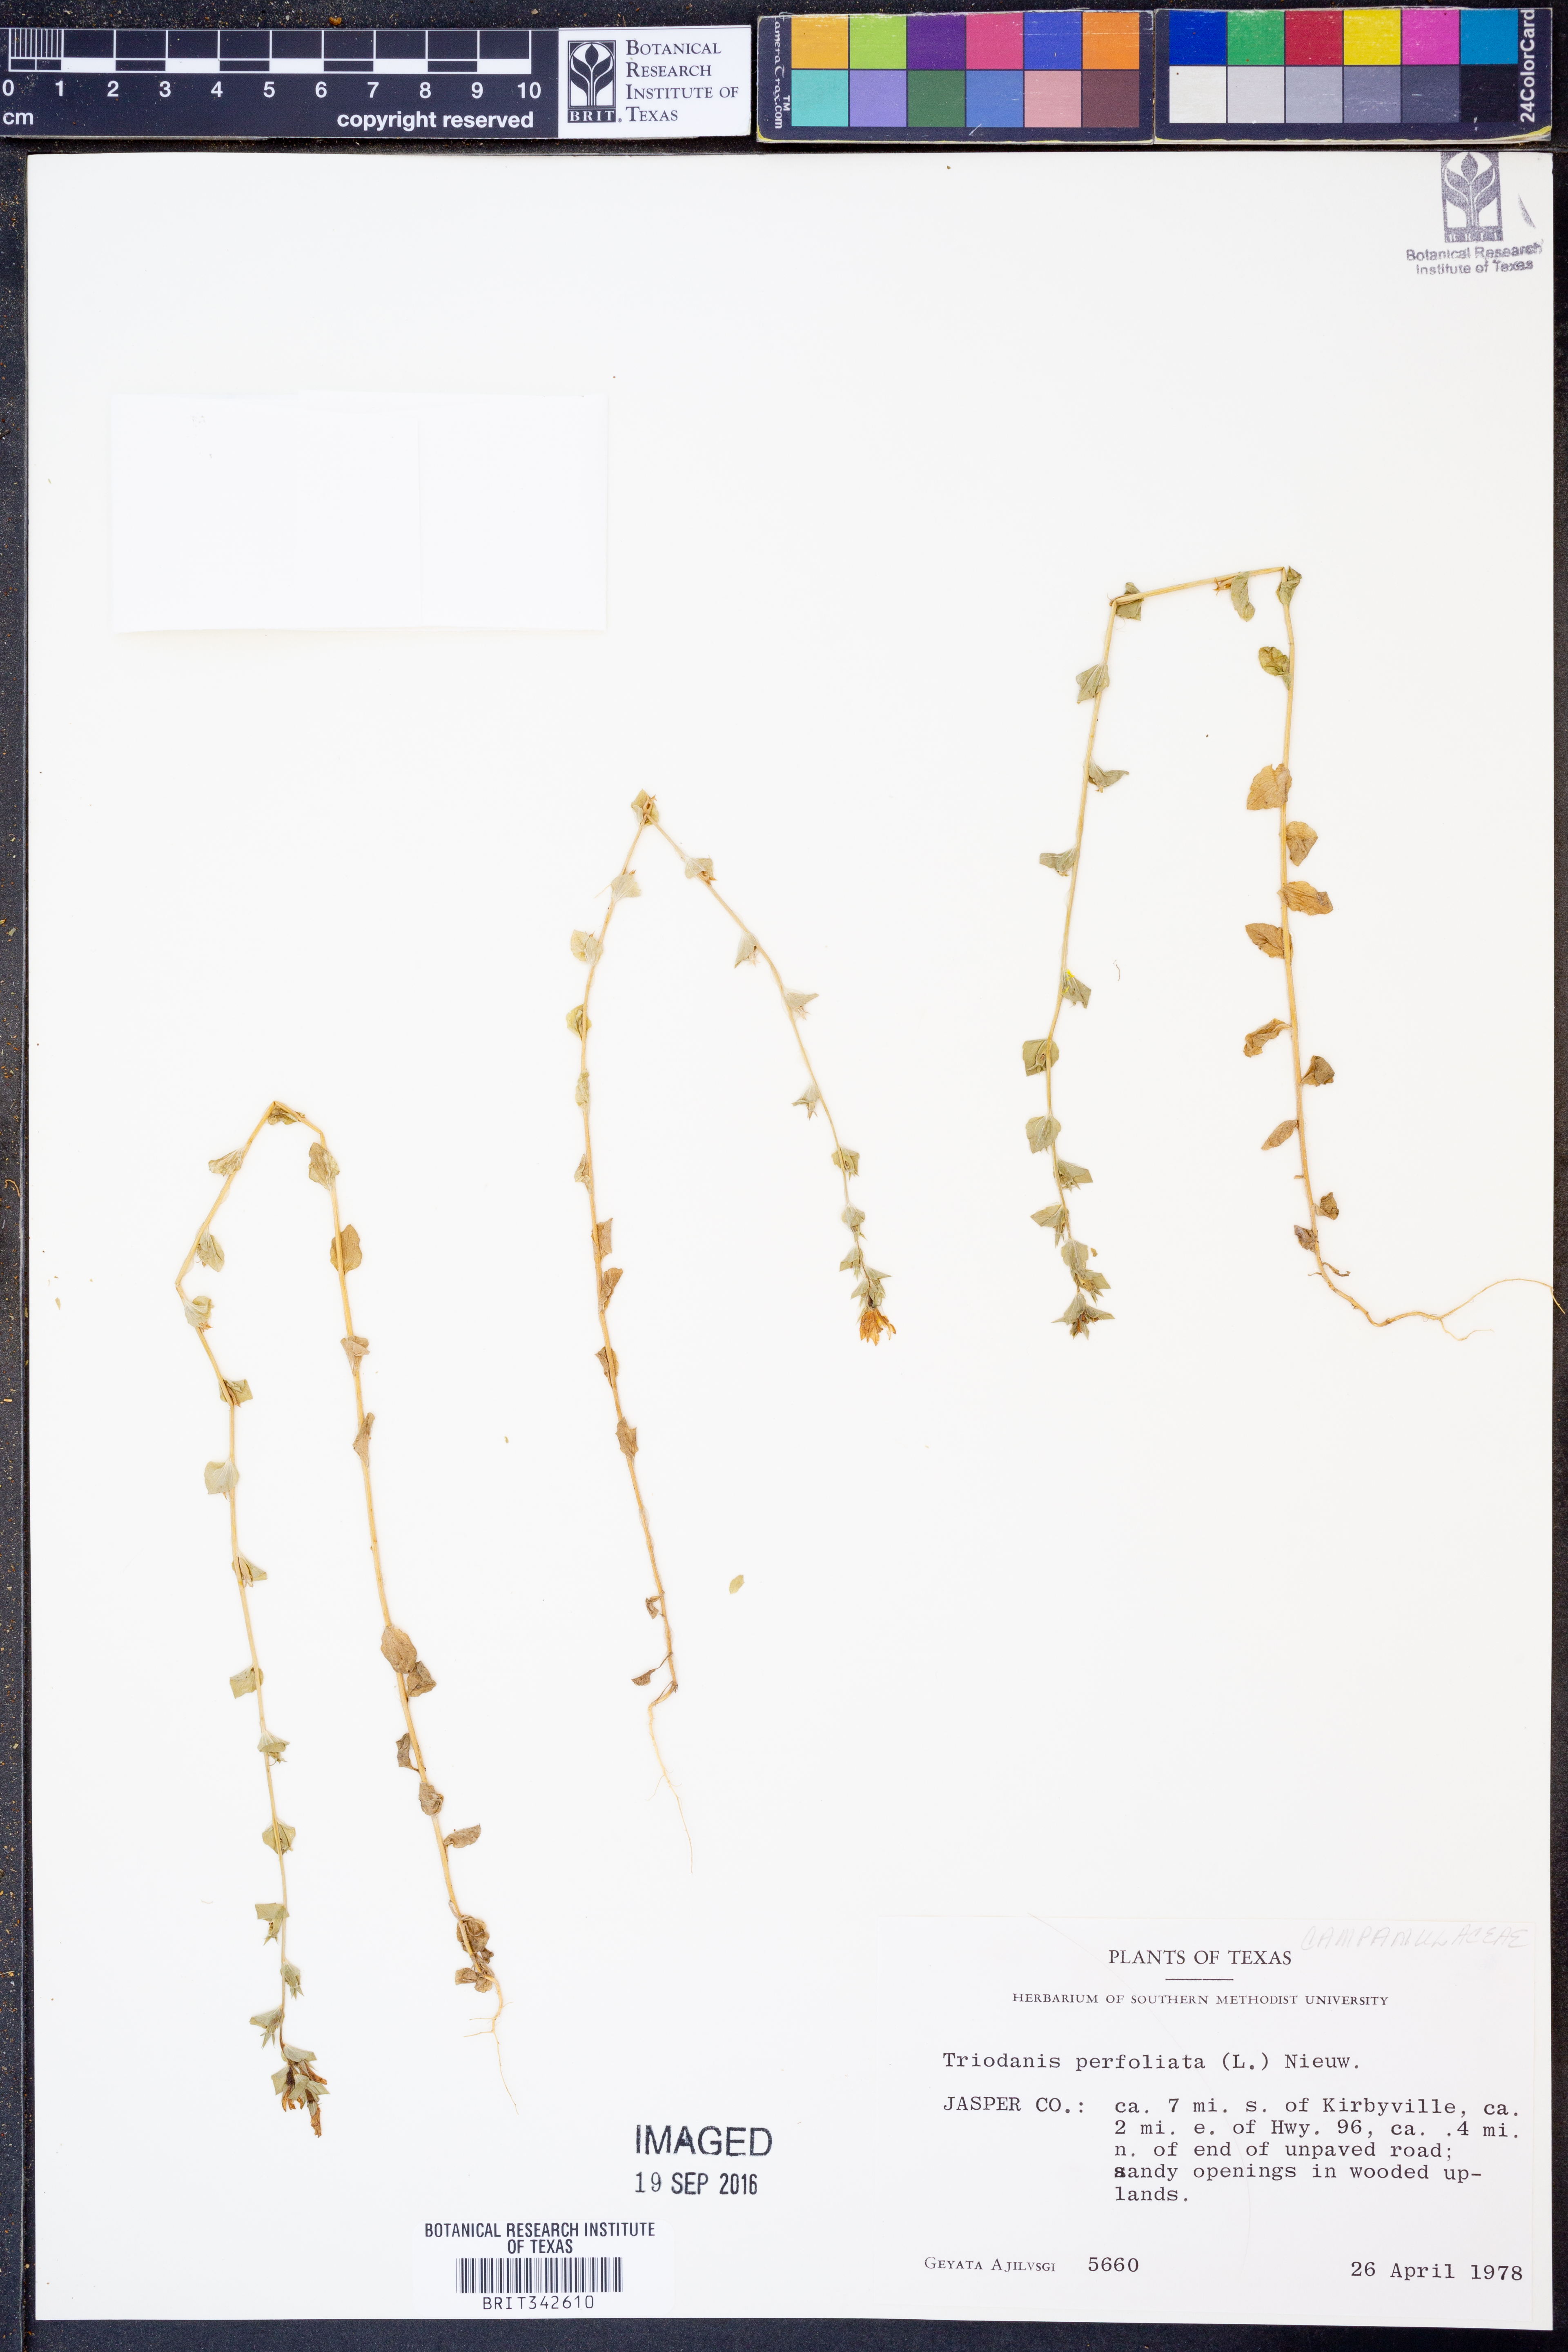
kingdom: Plantae
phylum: Tracheophyta
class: Magnoliopsida
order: Asterales
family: Campanulaceae
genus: Triodanis
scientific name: Triodanis perfoliata
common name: Clasping venus' looking-glass
